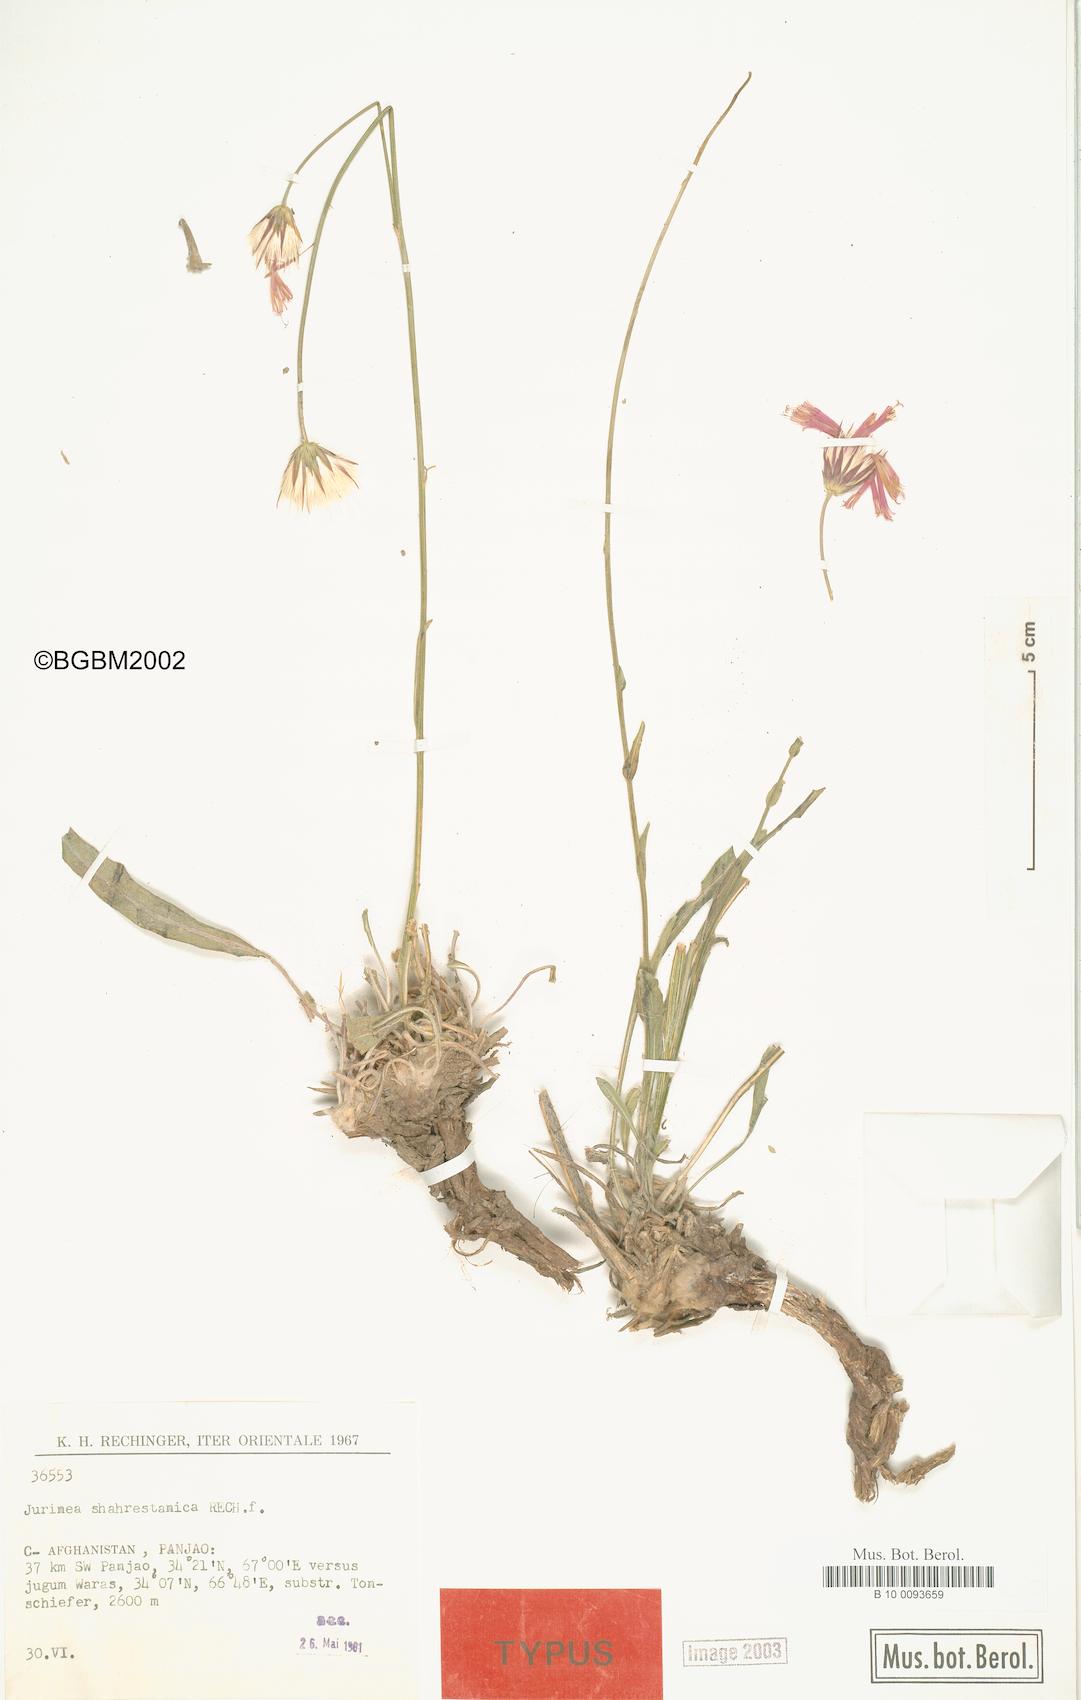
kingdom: Plantae
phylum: Tracheophyta
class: Magnoliopsida
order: Asterales
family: Asteraceae
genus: Jurinea
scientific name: Jurinea shahrestanica
